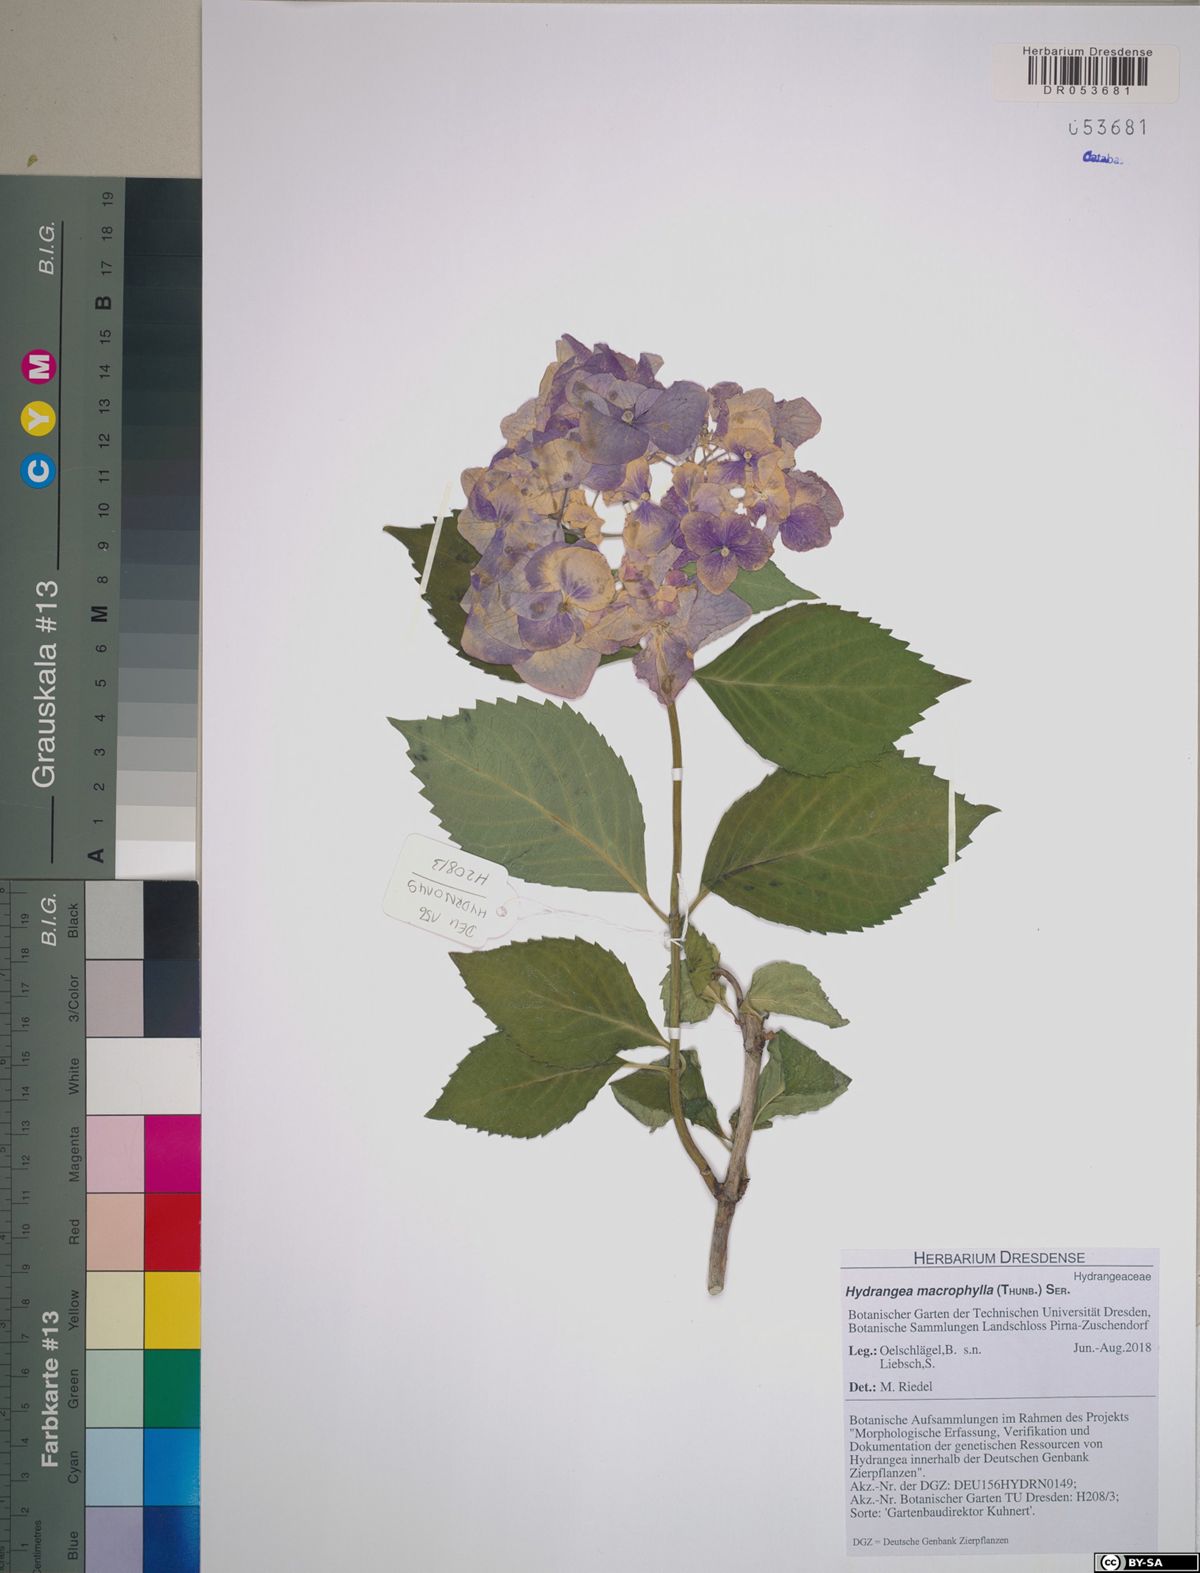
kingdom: Plantae
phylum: Tracheophyta
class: Magnoliopsida
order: Cornales
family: Hydrangeaceae
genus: Hydrangea
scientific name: Hydrangea macrophylla
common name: Hydrangea
